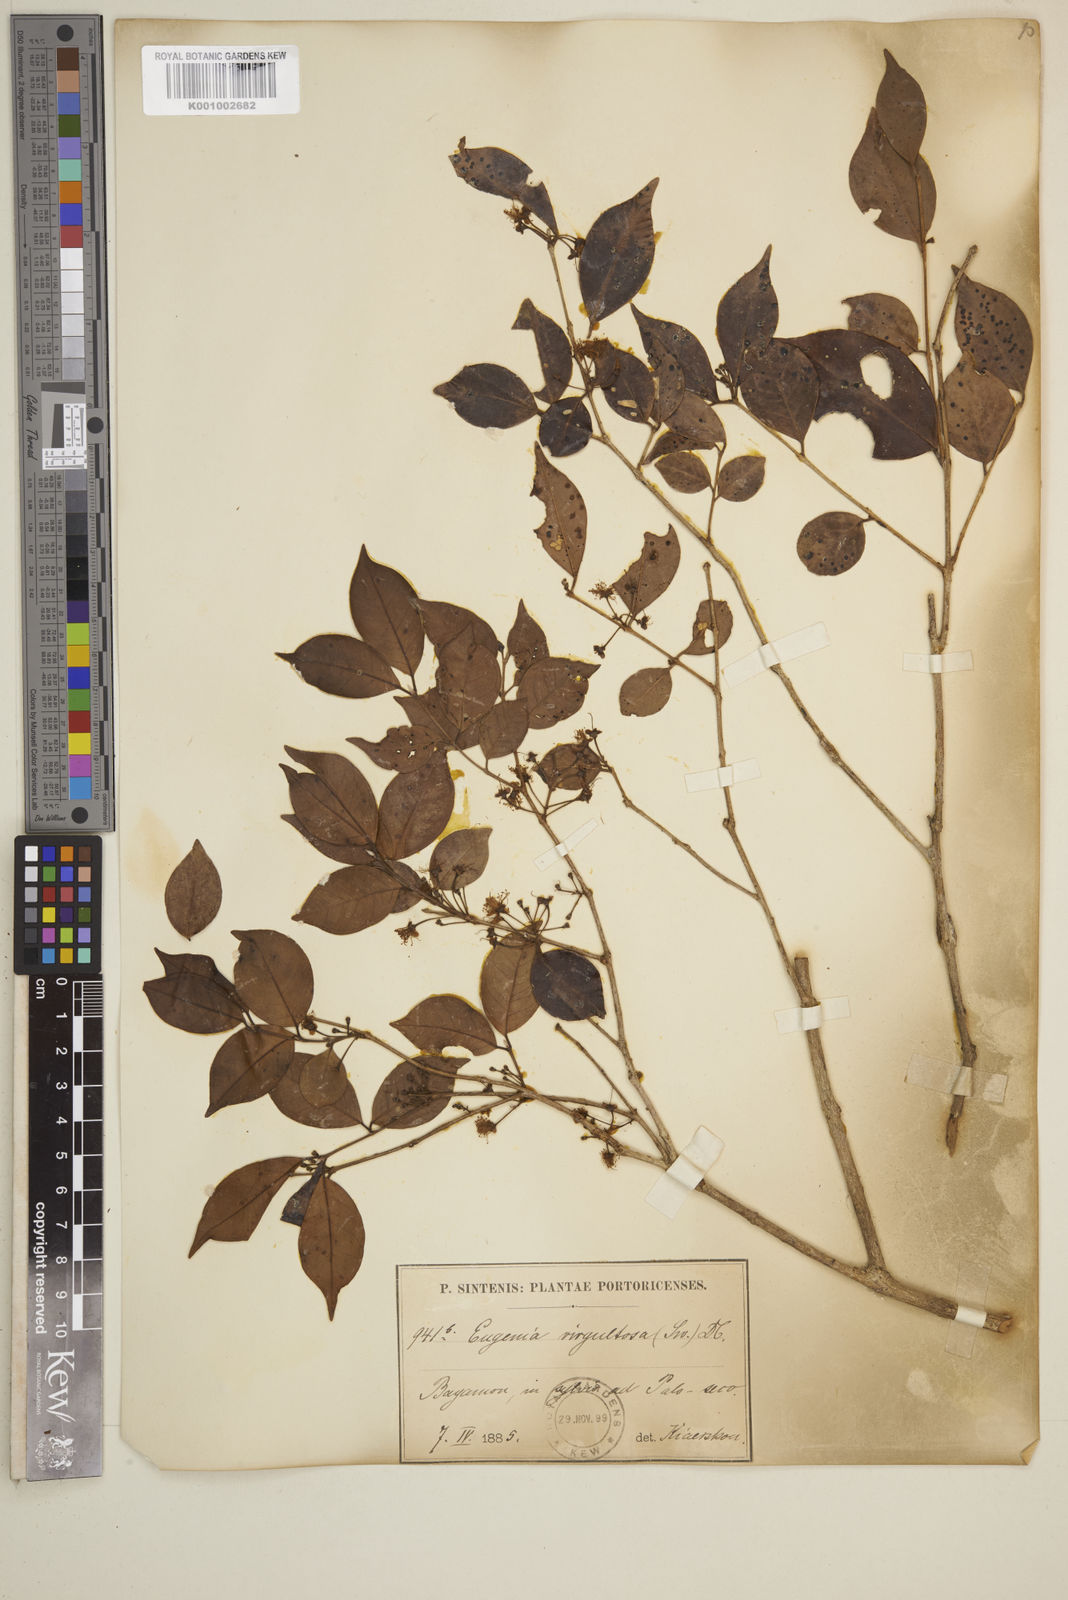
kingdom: Plantae
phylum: Tracheophyta
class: Magnoliopsida
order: Myrtales
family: Myrtaceae
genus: Eugenia
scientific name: Eugenia biflora
